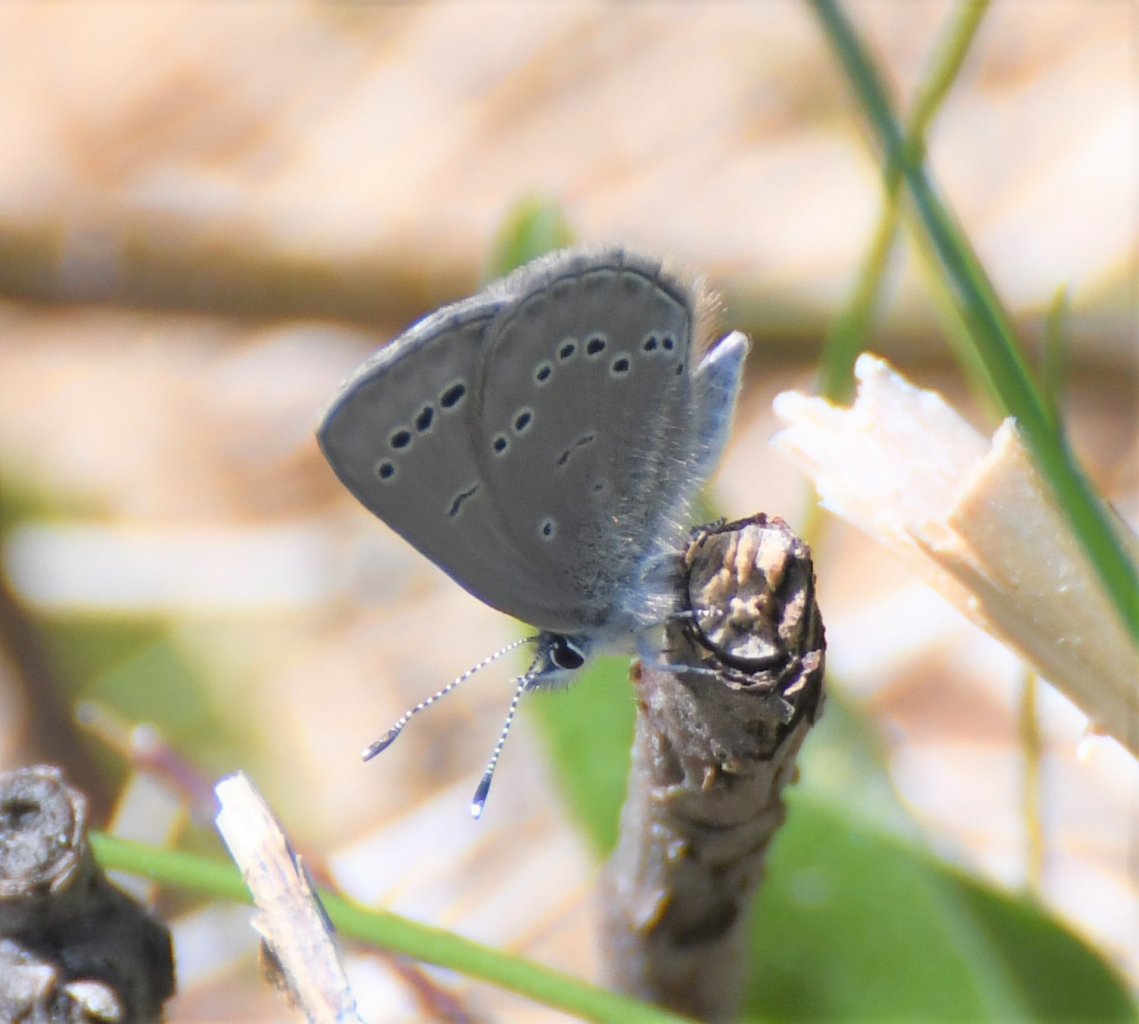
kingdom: Animalia
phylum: Arthropoda
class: Insecta
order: Lepidoptera
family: Lycaenidae
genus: Glaucopsyche
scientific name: Glaucopsyche lygdamus
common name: Silvery Blue
